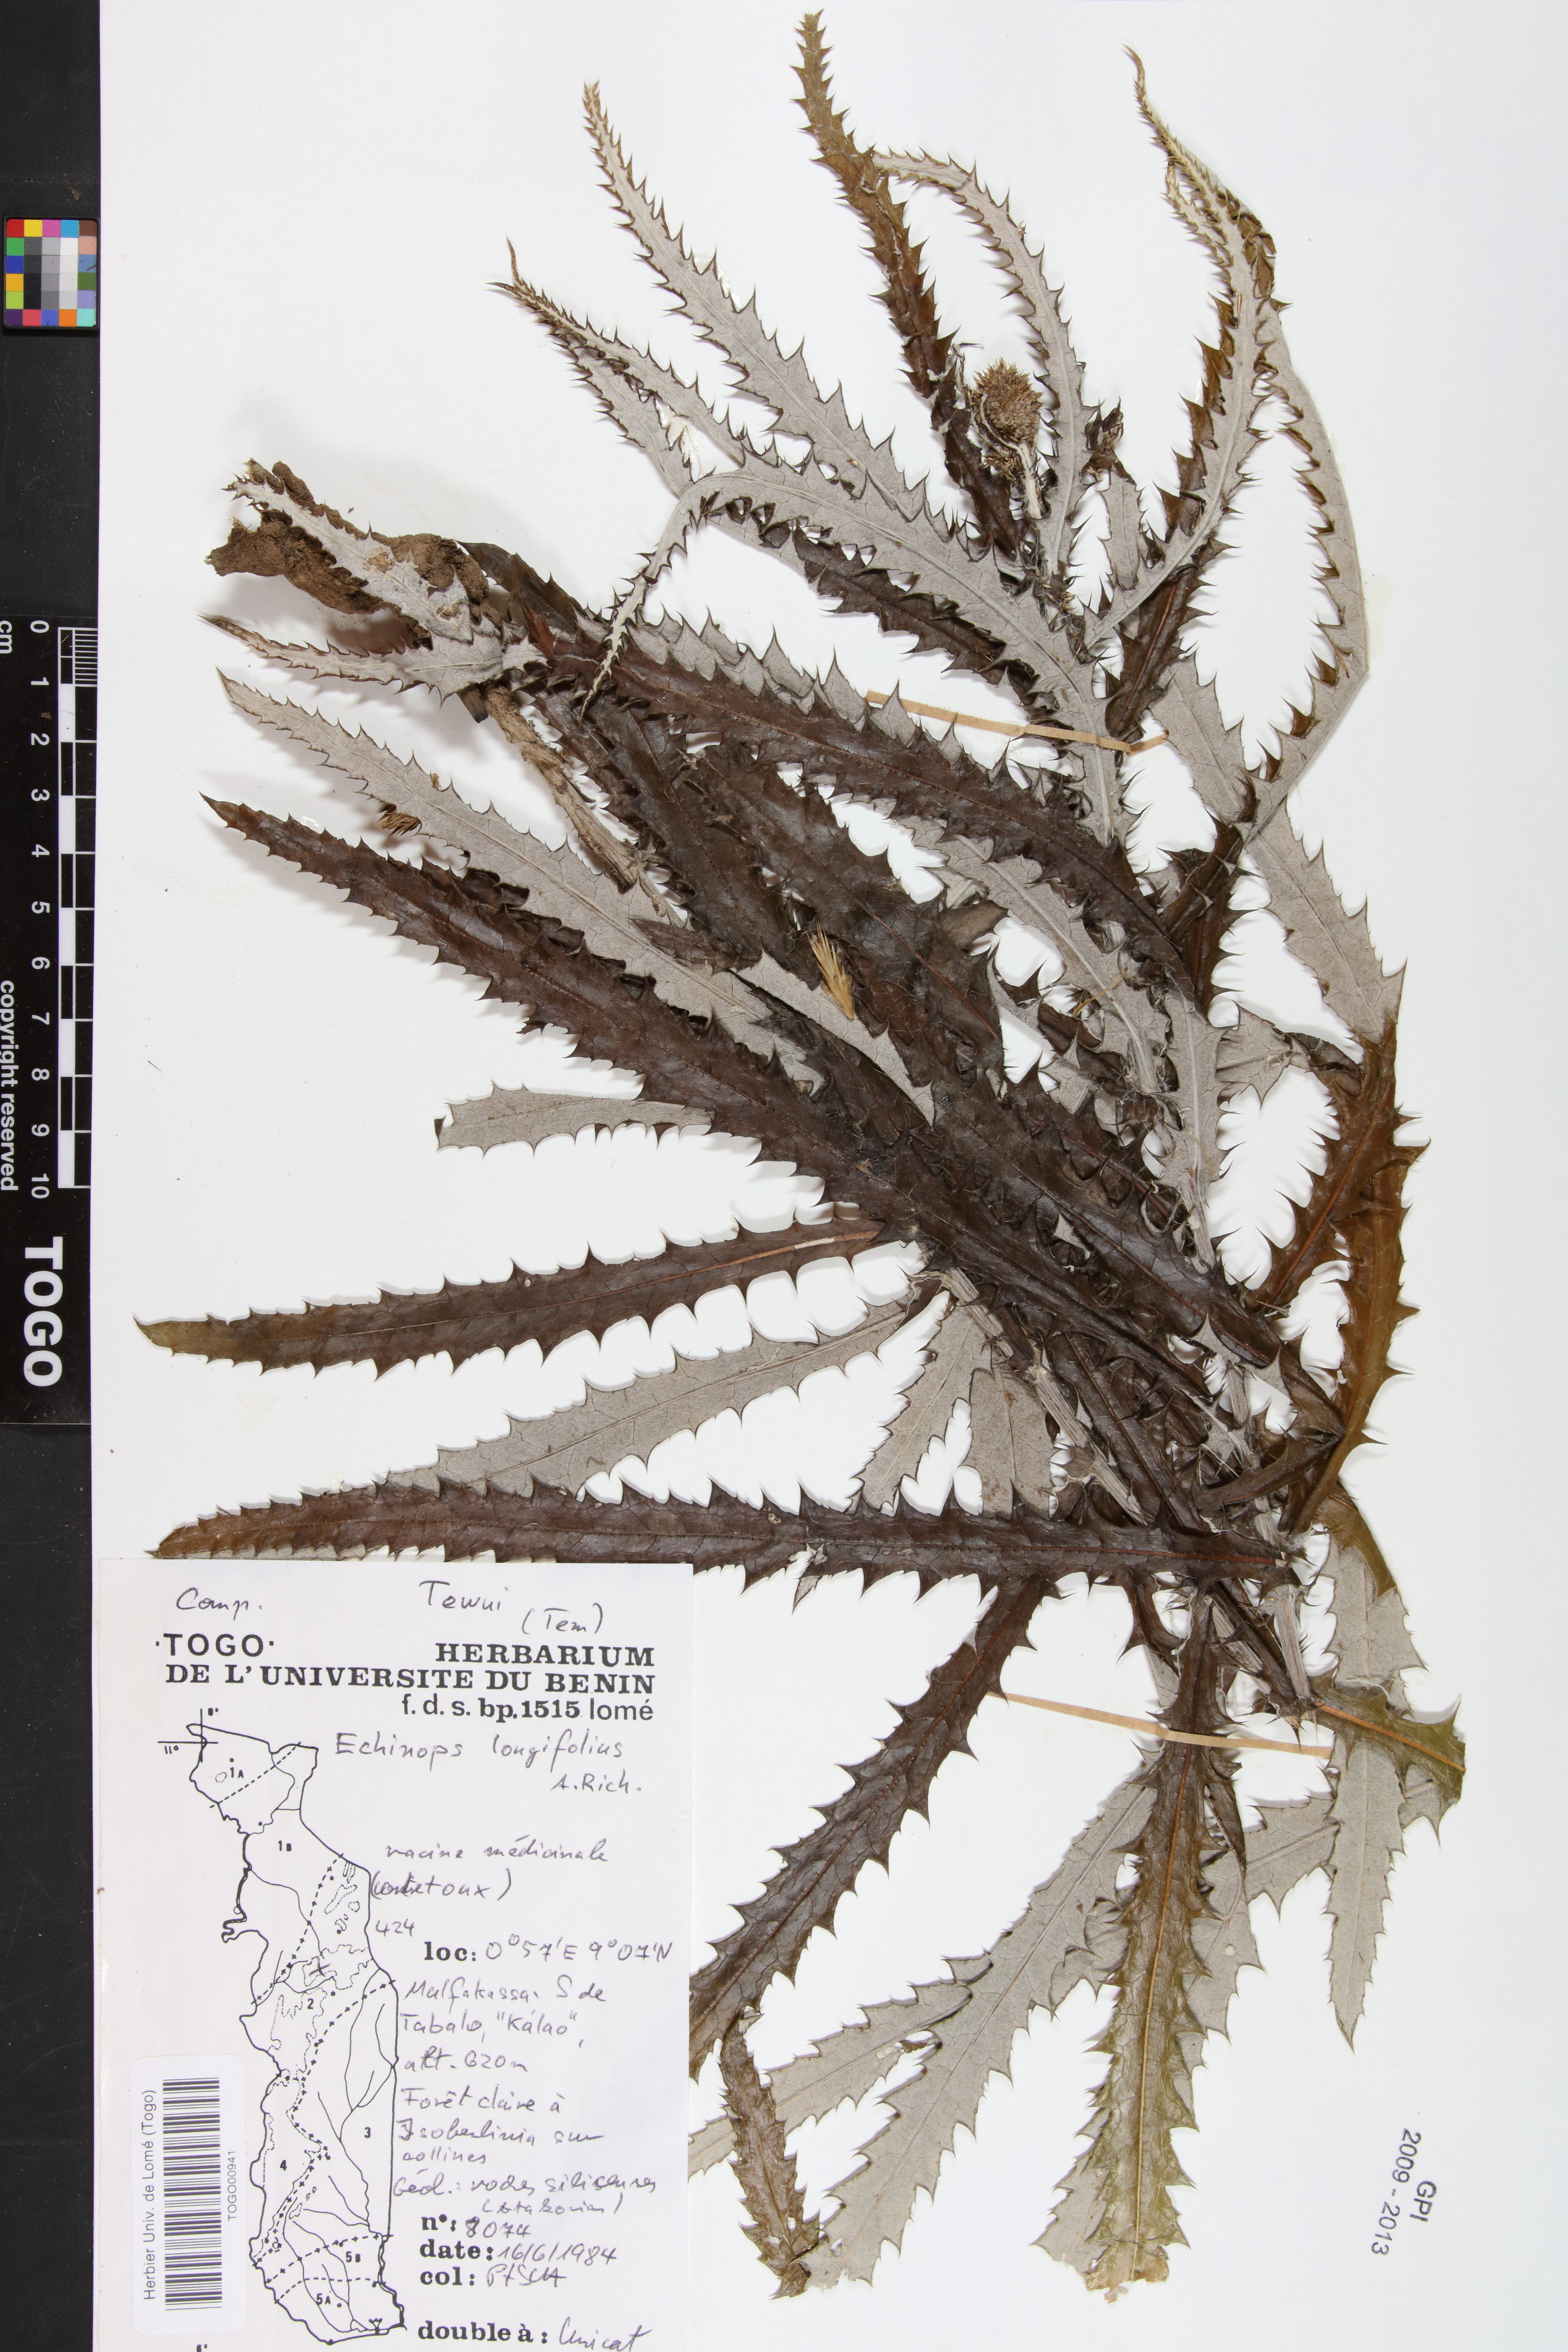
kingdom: Plantae
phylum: Tracheophyta
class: Magnoliopsida
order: Asterales
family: Asteraceae
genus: Echinops
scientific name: Echinops longifolius
